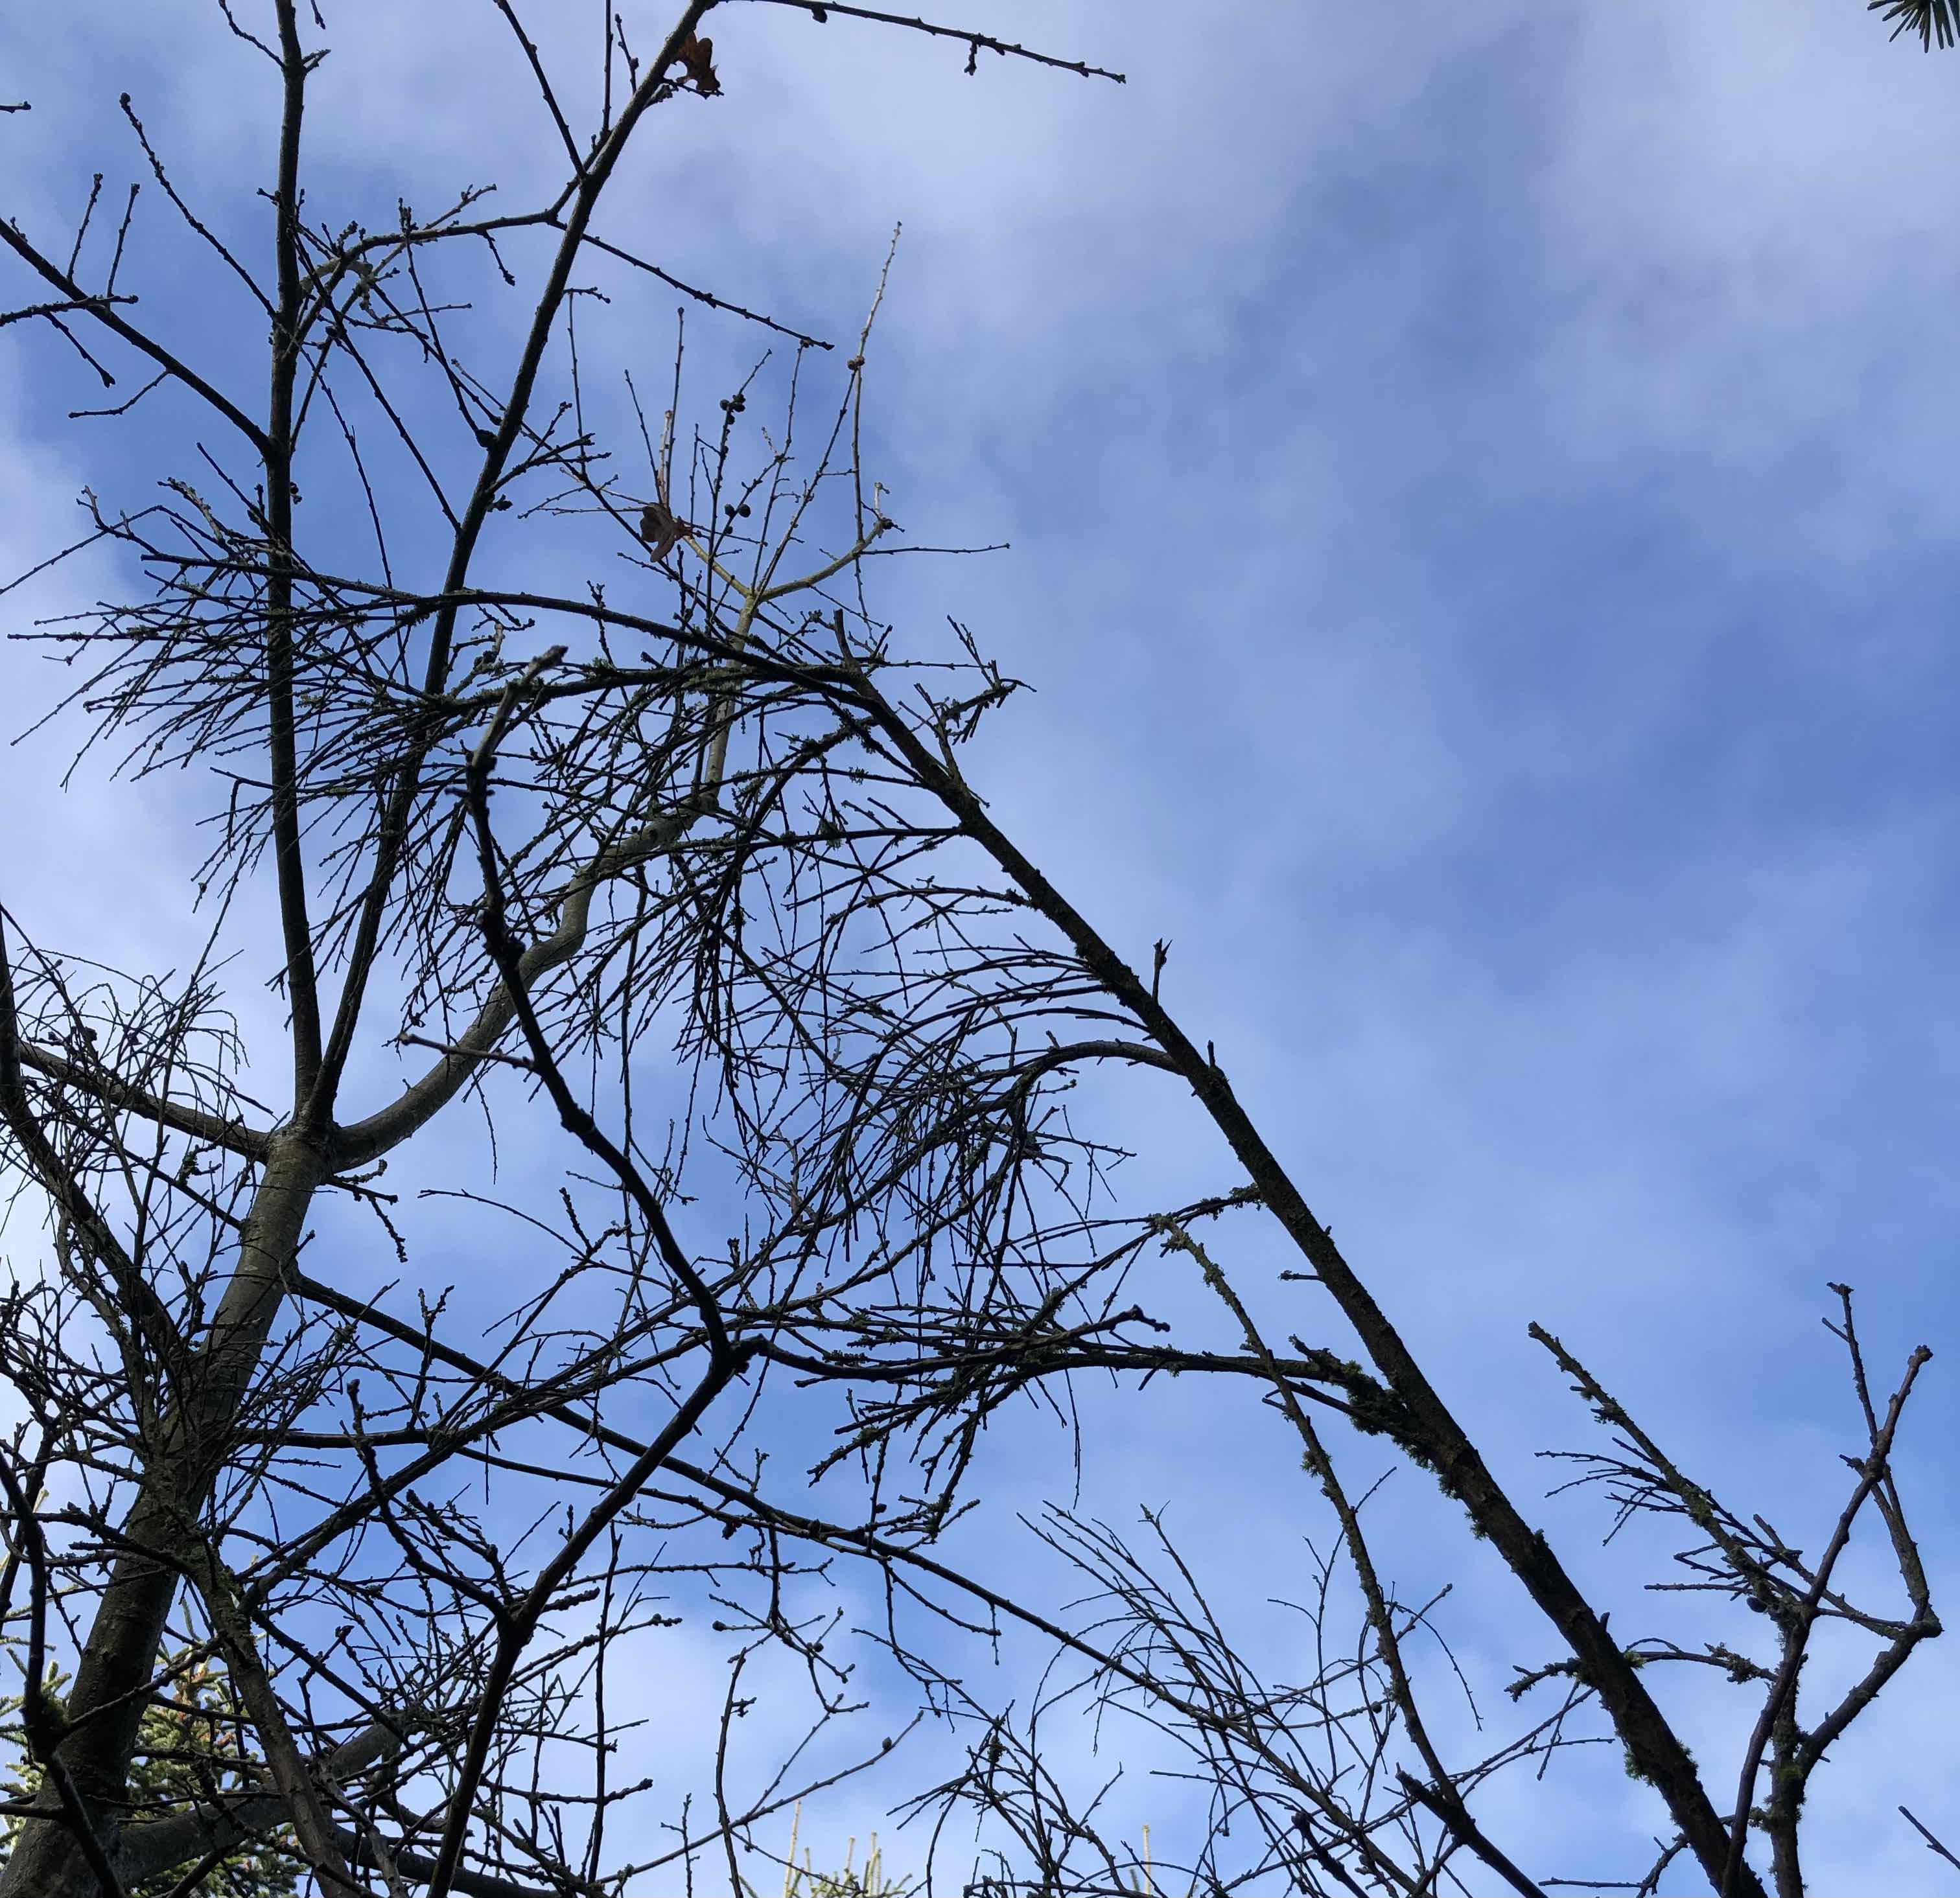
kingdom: Fungi
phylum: Basidiomycota
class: Tremellomycetes
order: Tremellales
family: Tremellaceae
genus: Tremella
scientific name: Tremella mesenterica
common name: gul bævresvamp
